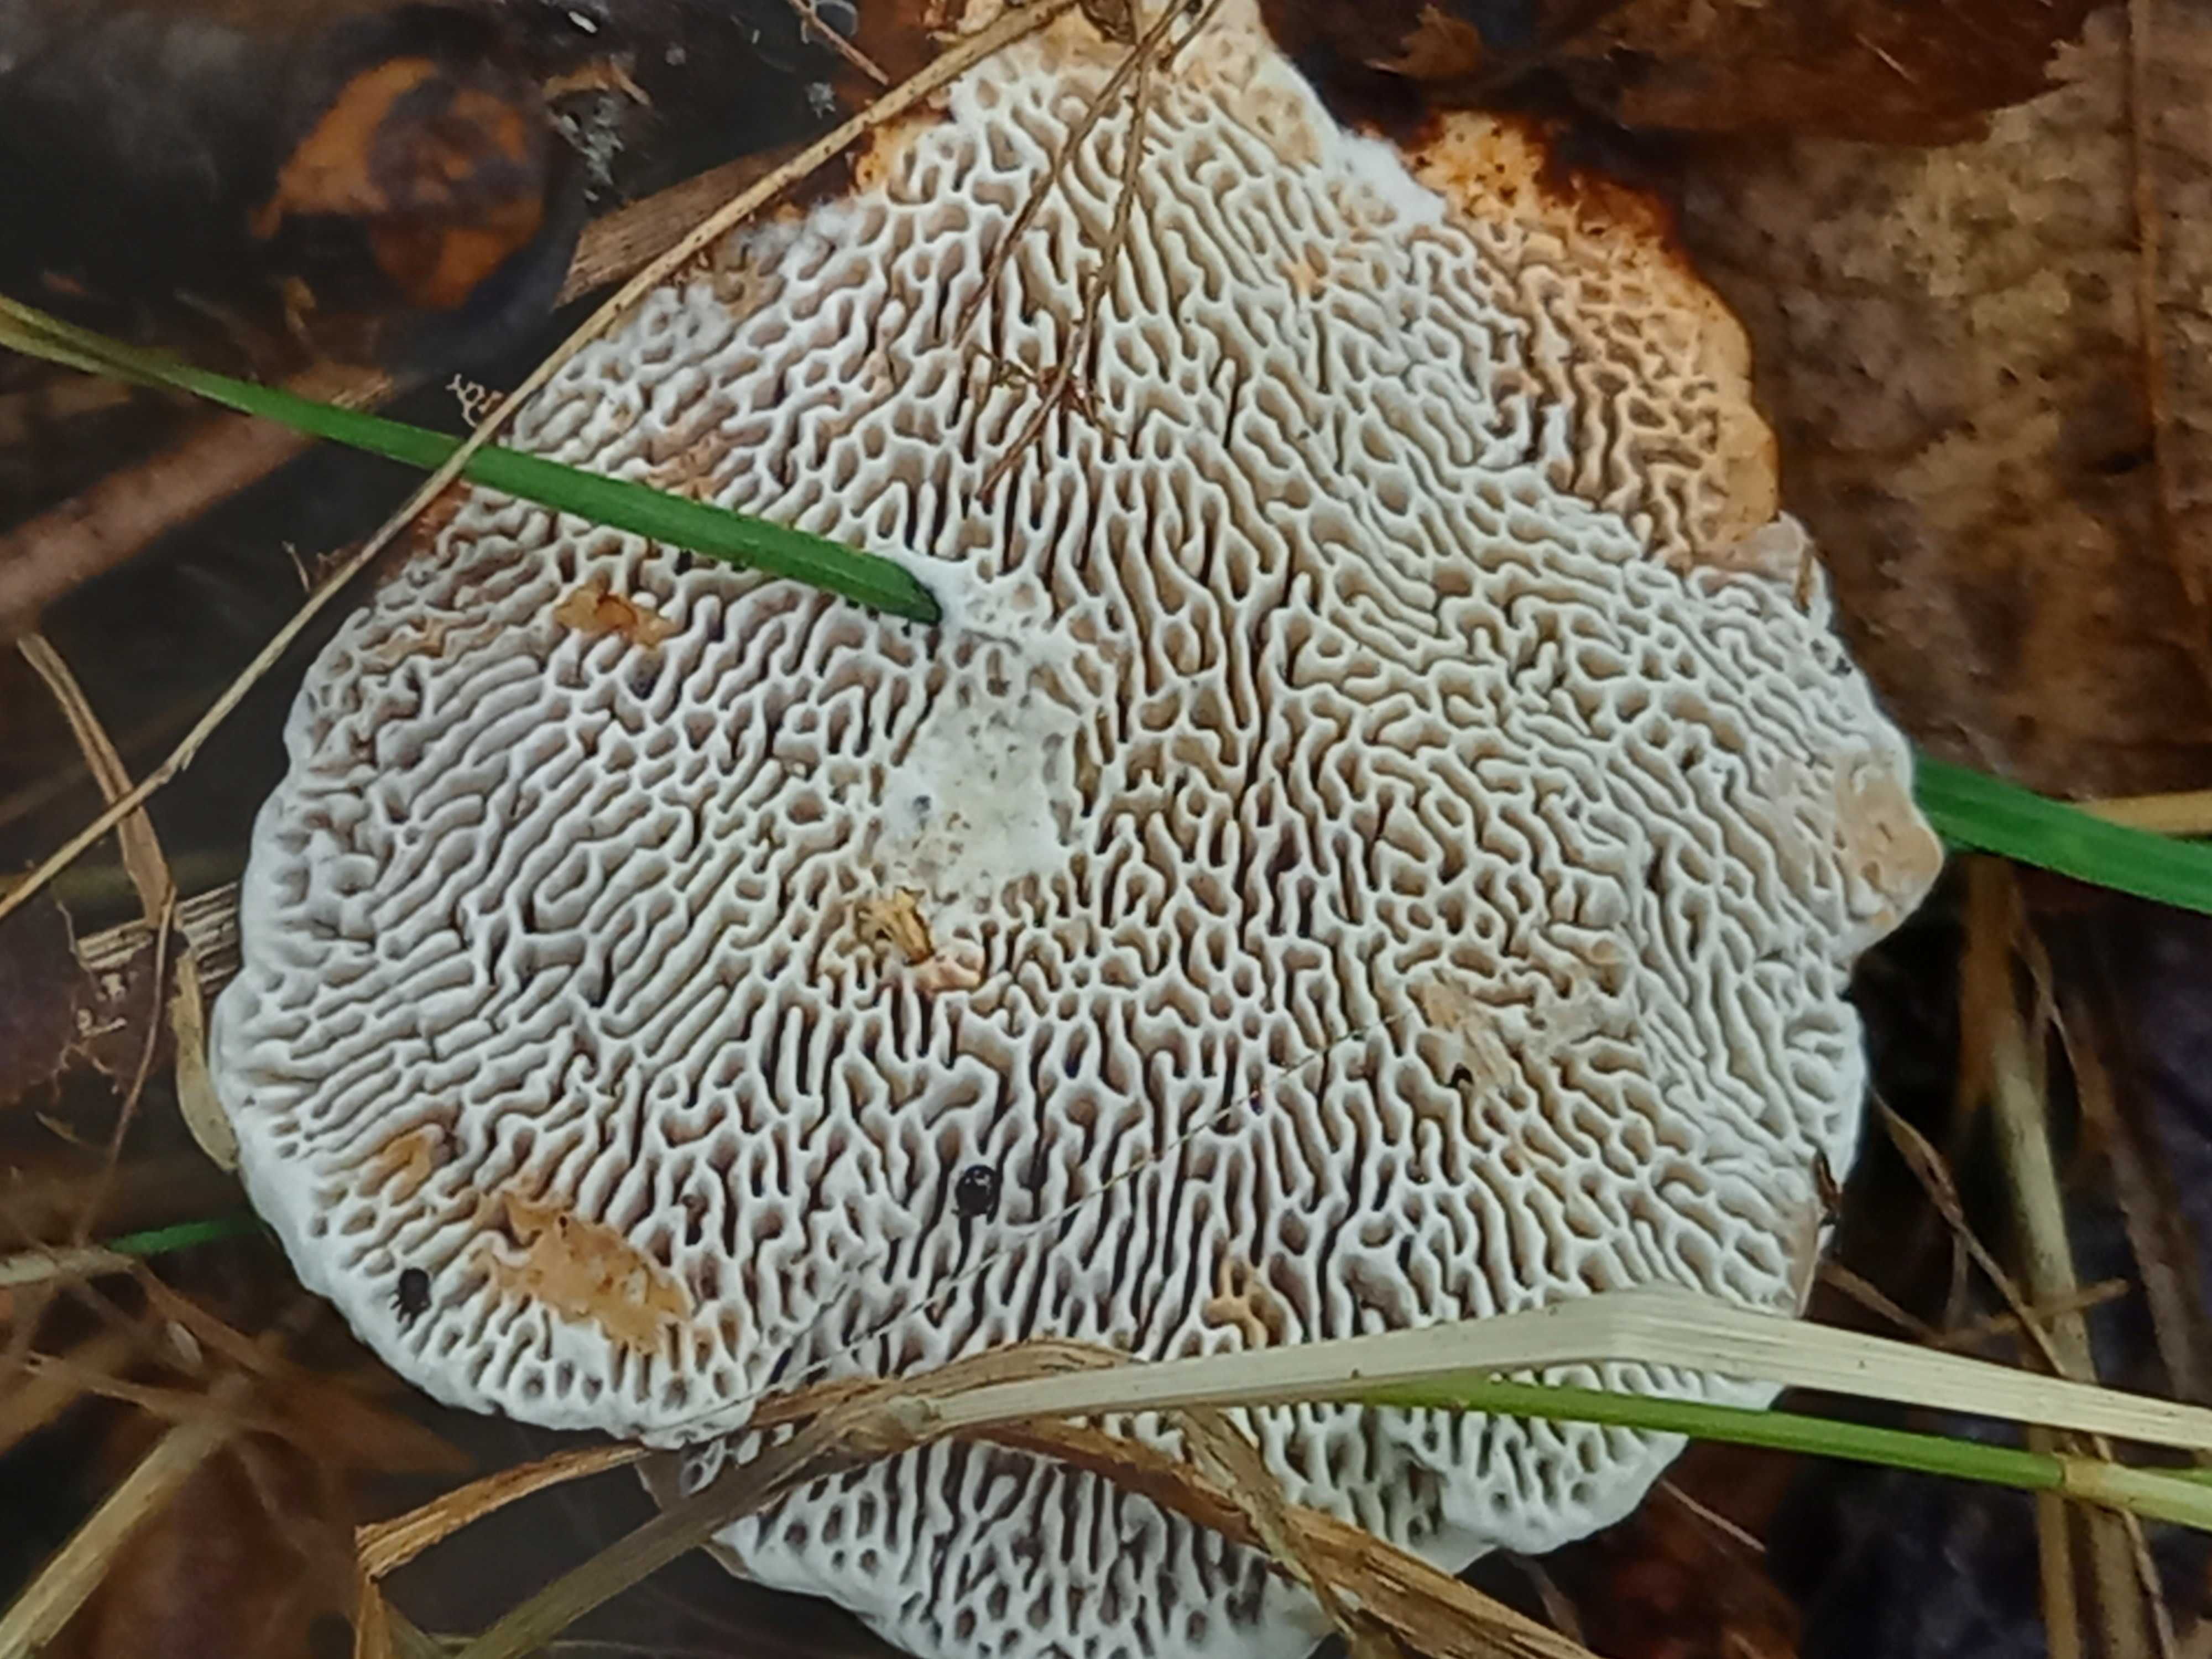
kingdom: Fungi
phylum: Basidiomycota
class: Agaricomycetes
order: Polyporales
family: Polyporaceae
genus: Daedaleopsis
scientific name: Daedaleopsis confragosa
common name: rødmende læderporesvamp
